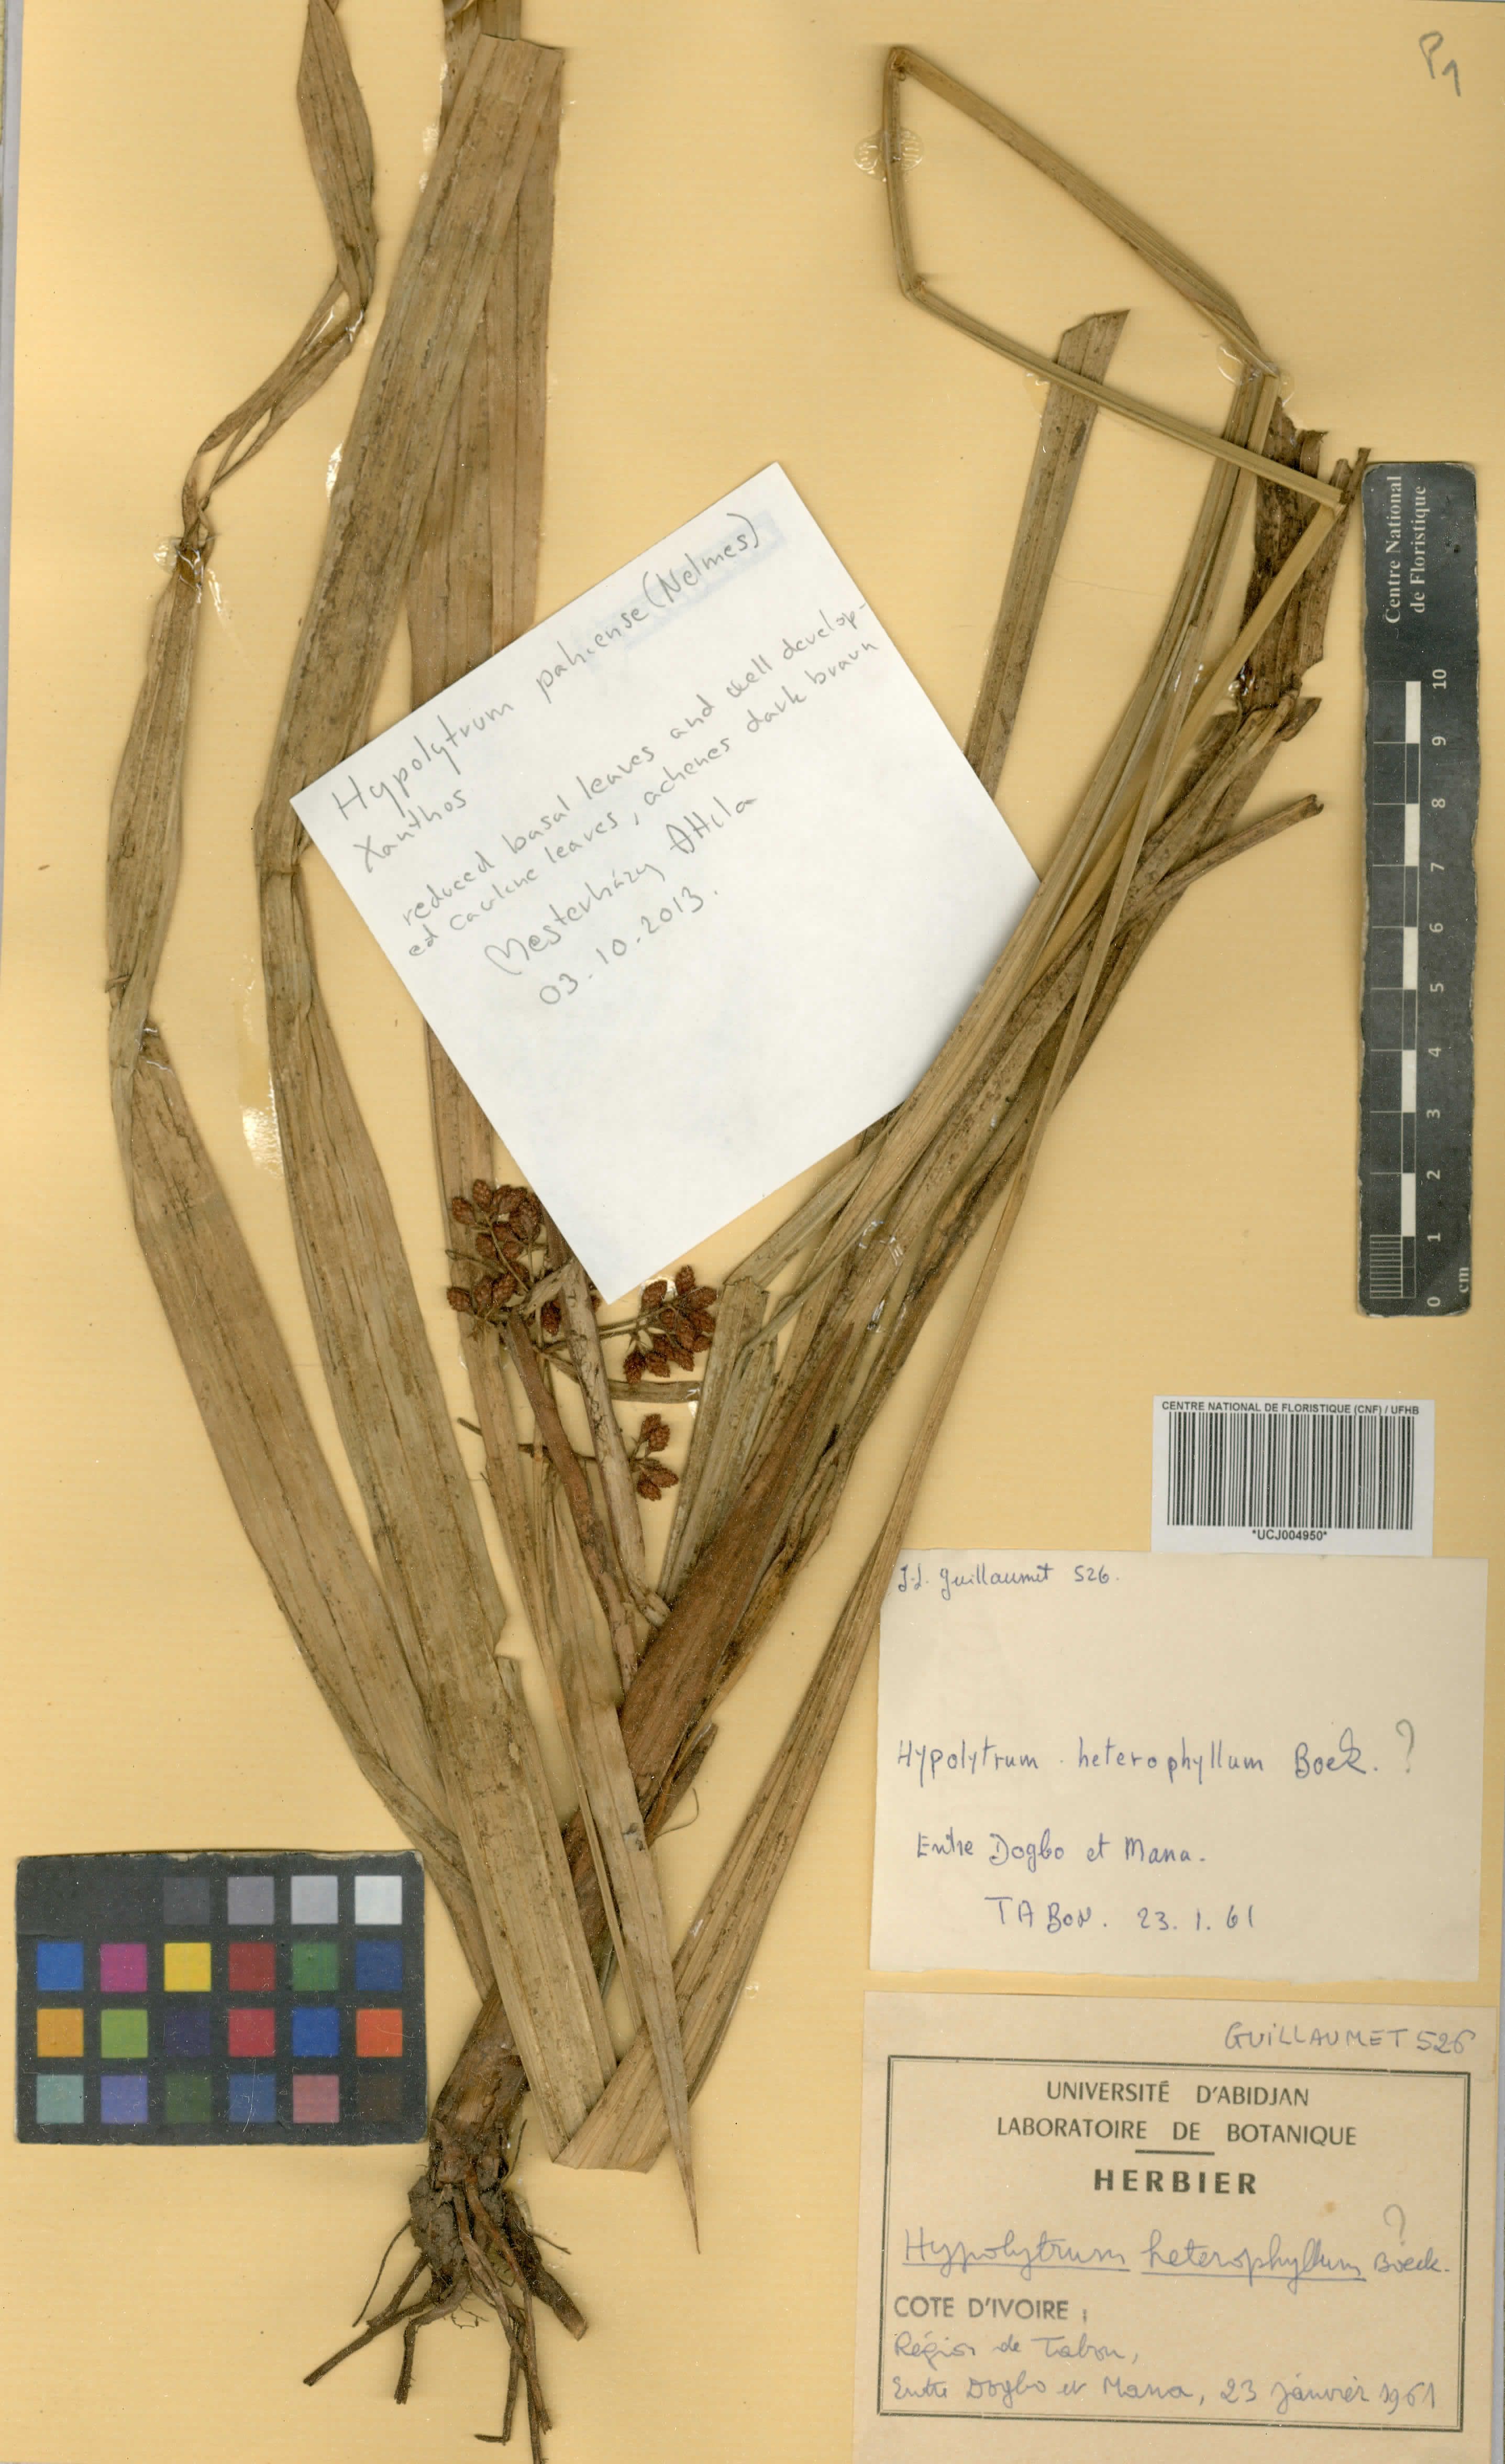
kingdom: Plantae
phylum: Tracheophyta
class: Liliopsida
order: Poales
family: Cyperaceae
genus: Hypolytrum
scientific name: Hypolytrum heteromorphum
